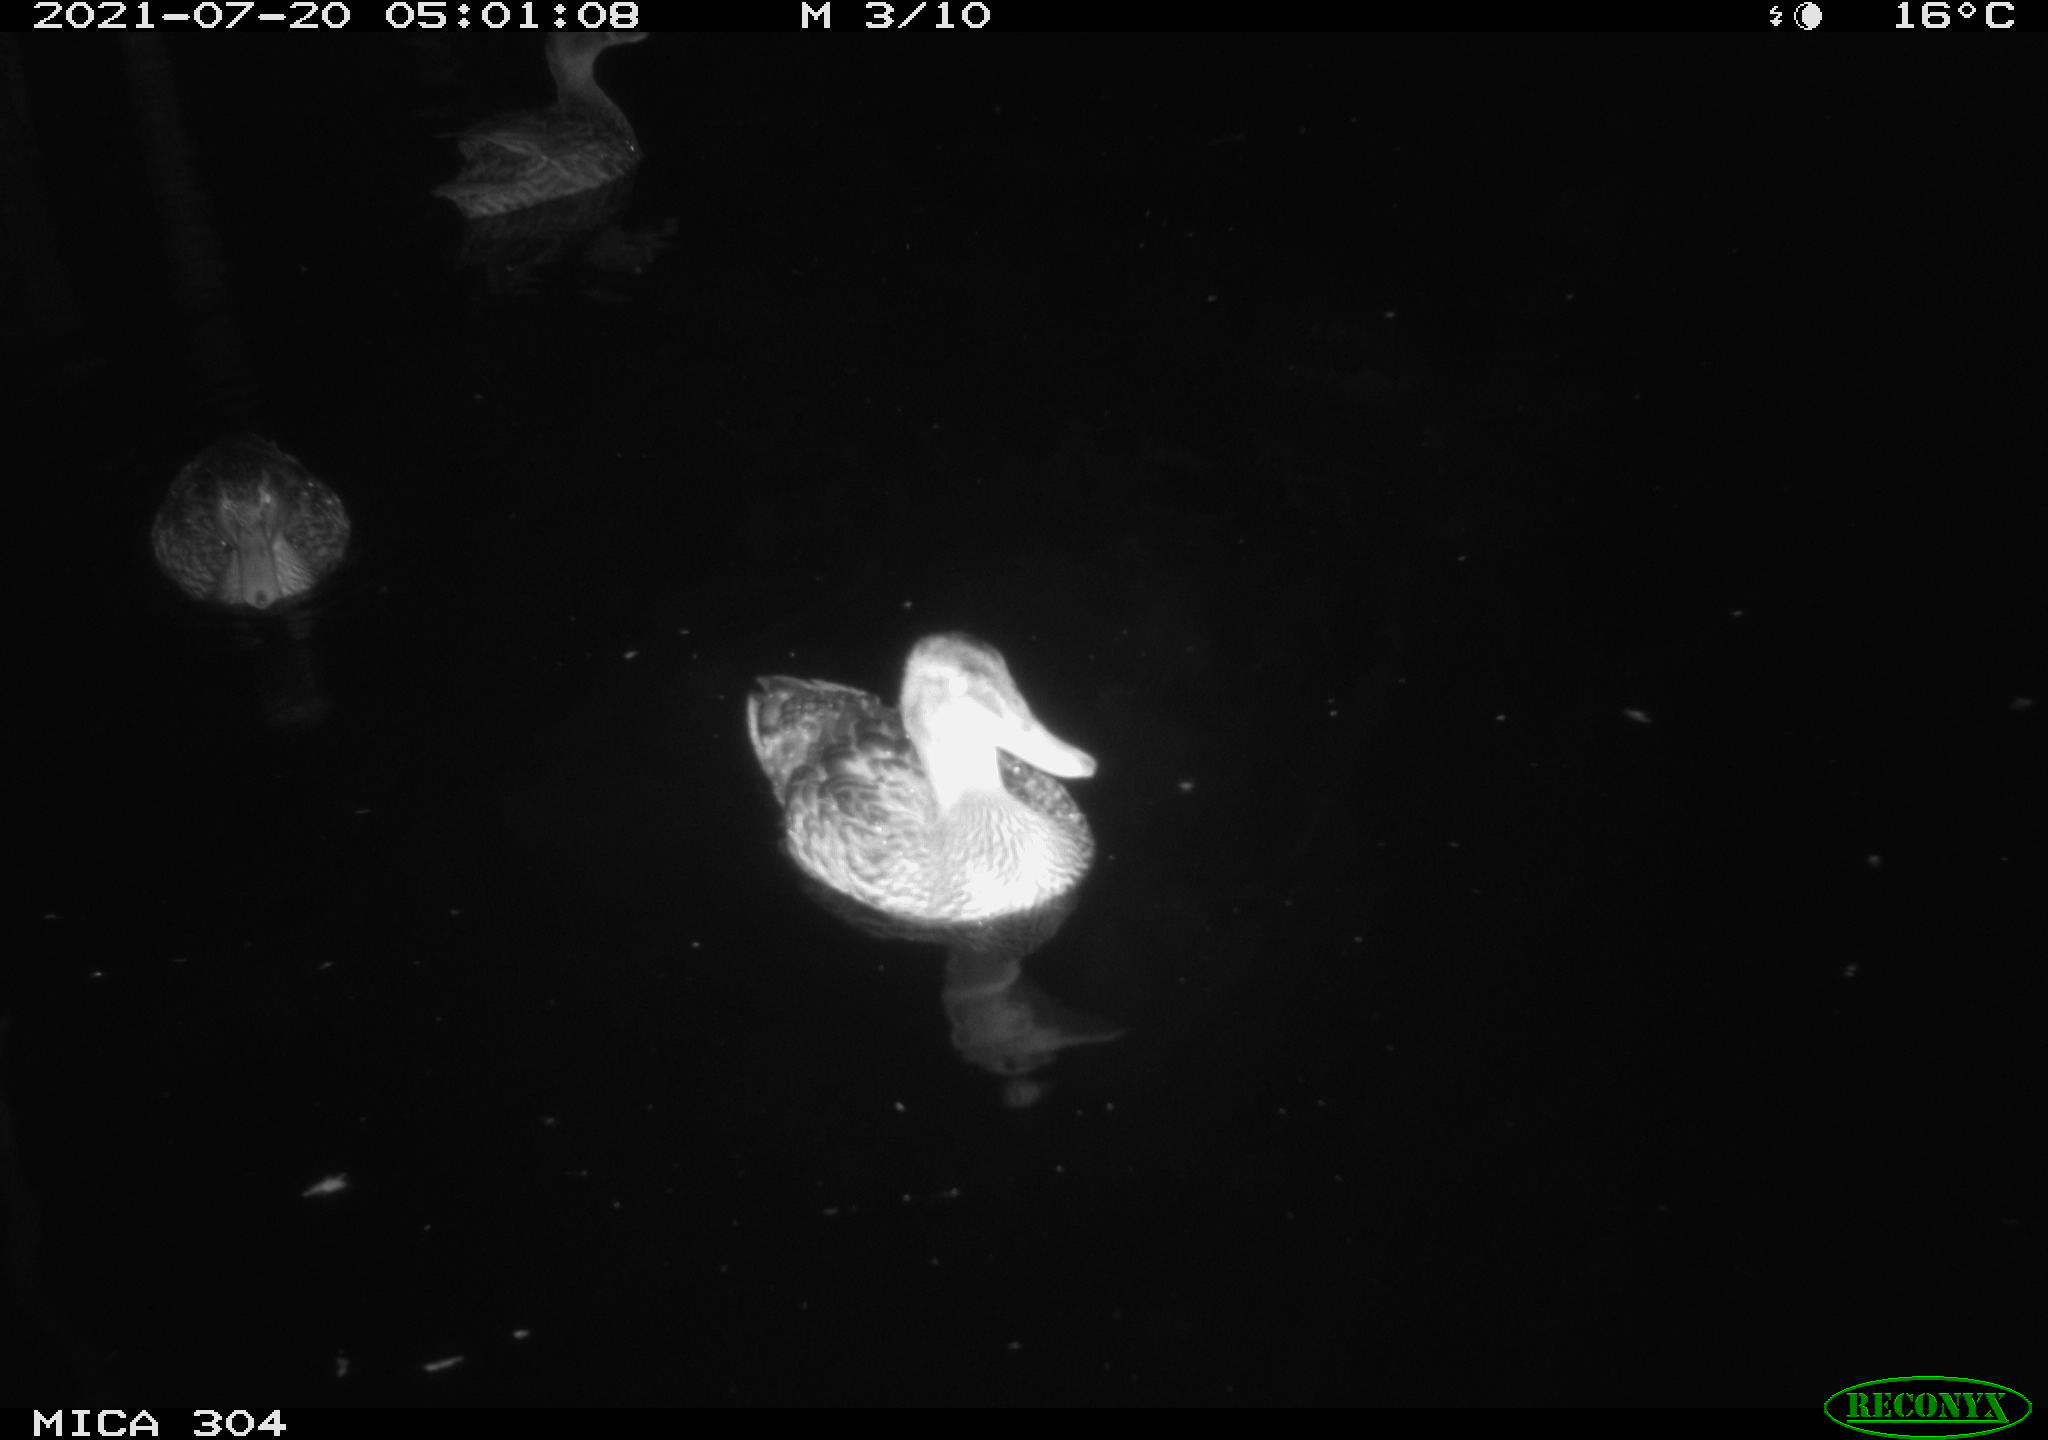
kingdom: Animalia
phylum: Chordata
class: Aves
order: Anseriformes
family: Anatidae
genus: Anas
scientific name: Anas platyrhynchos
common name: Mallard
